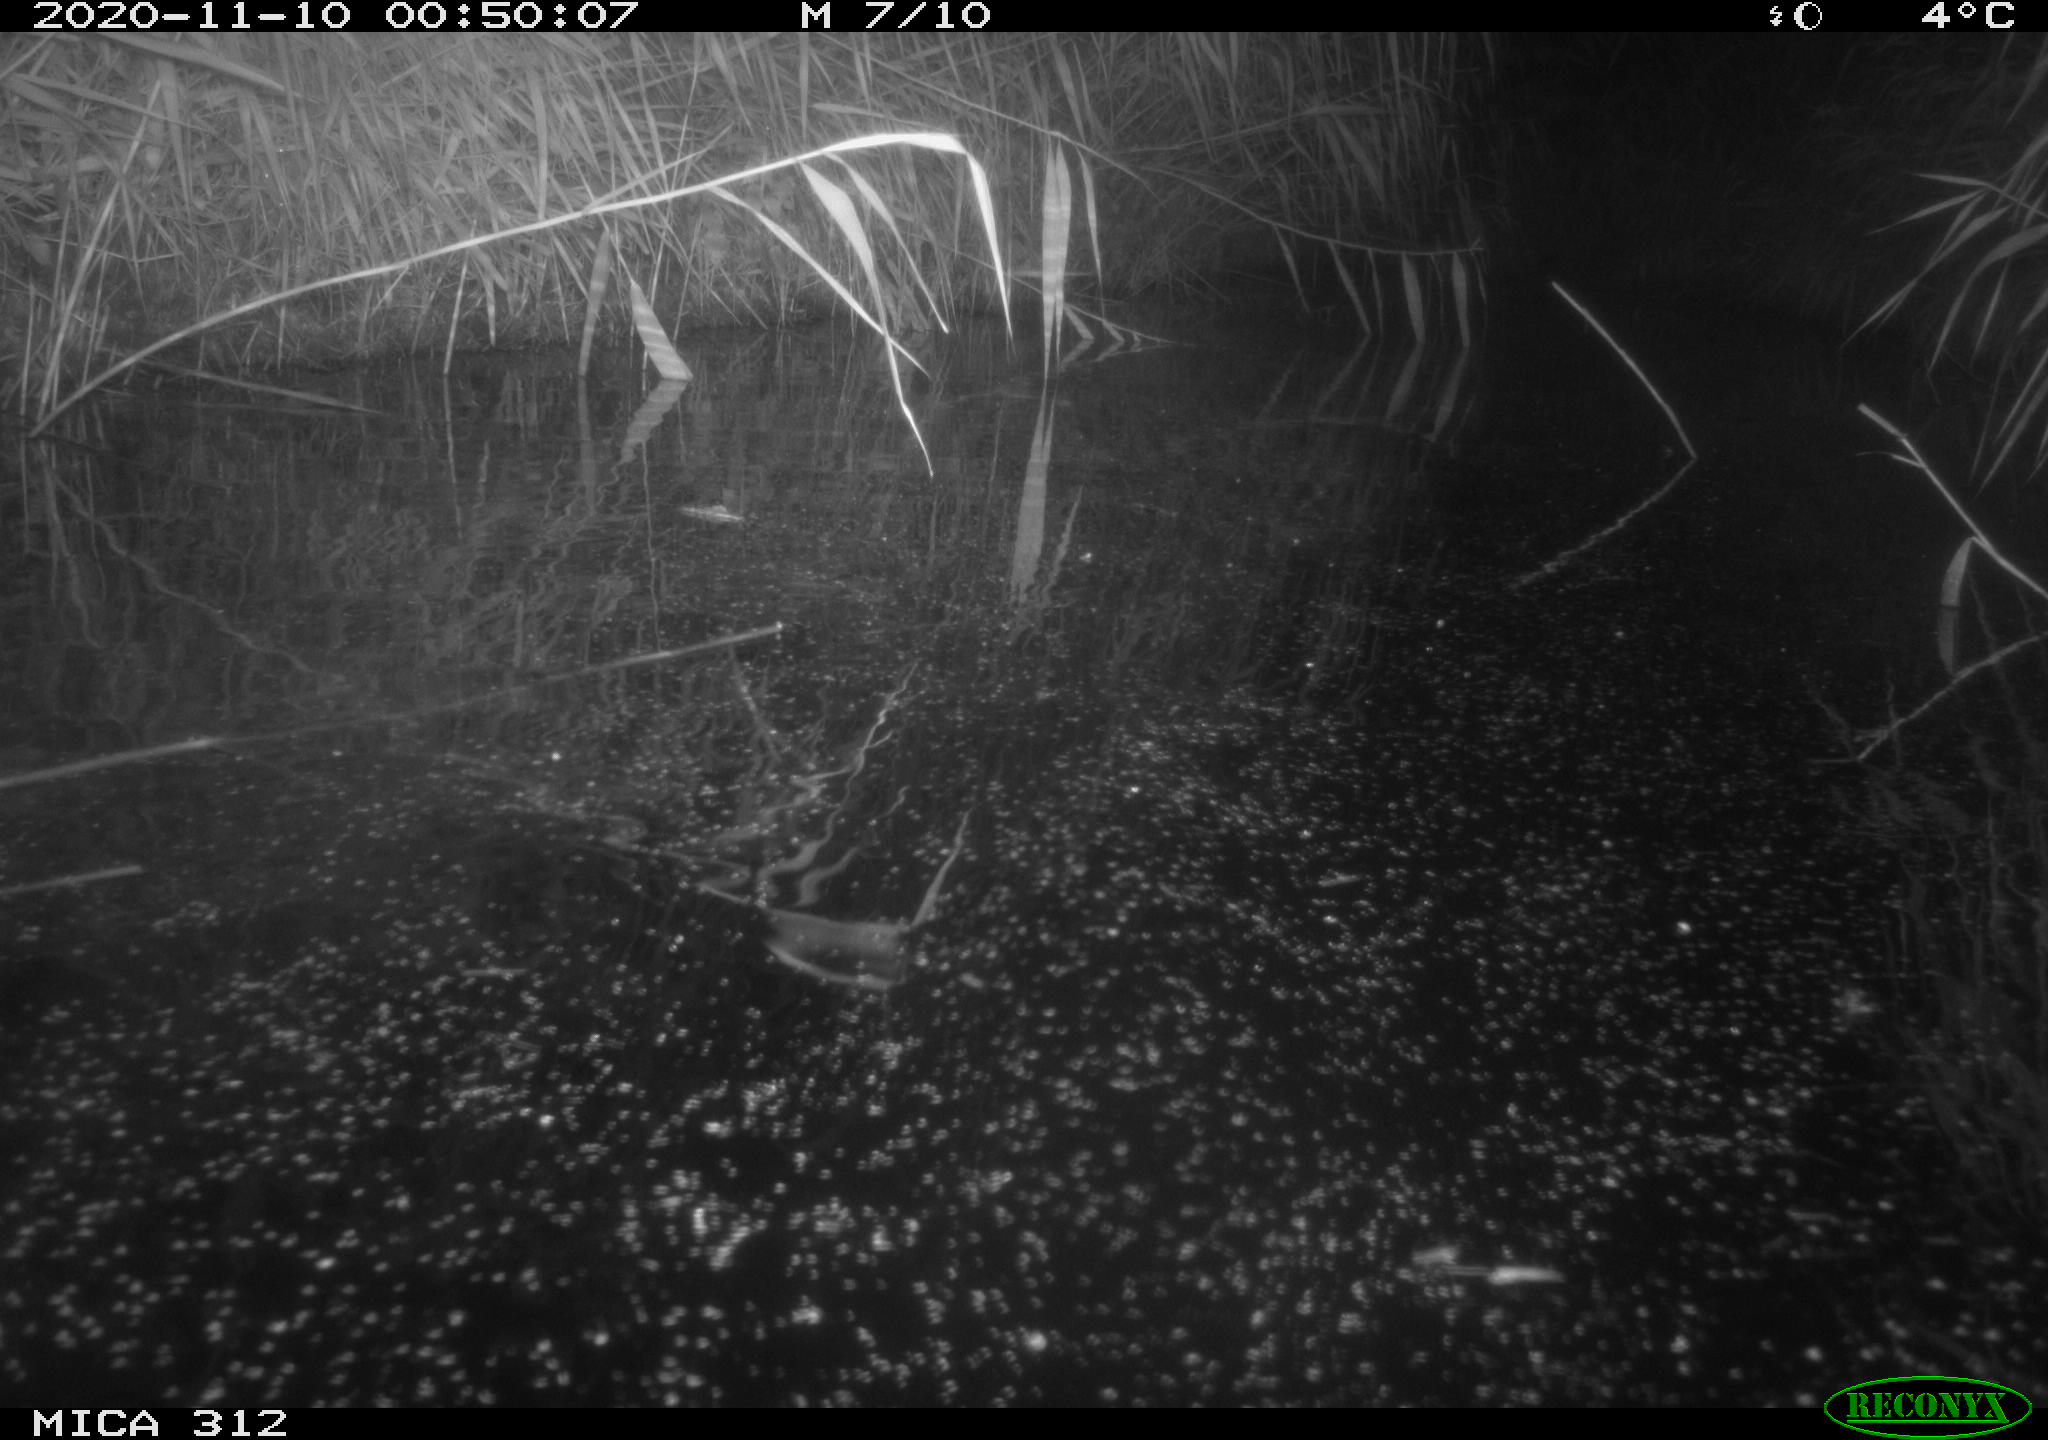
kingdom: Animalia
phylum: Chordata
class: Mammalia
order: Rodentia
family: Muridae
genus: Rattus
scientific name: Rattus norvegicus
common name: Brown rat
